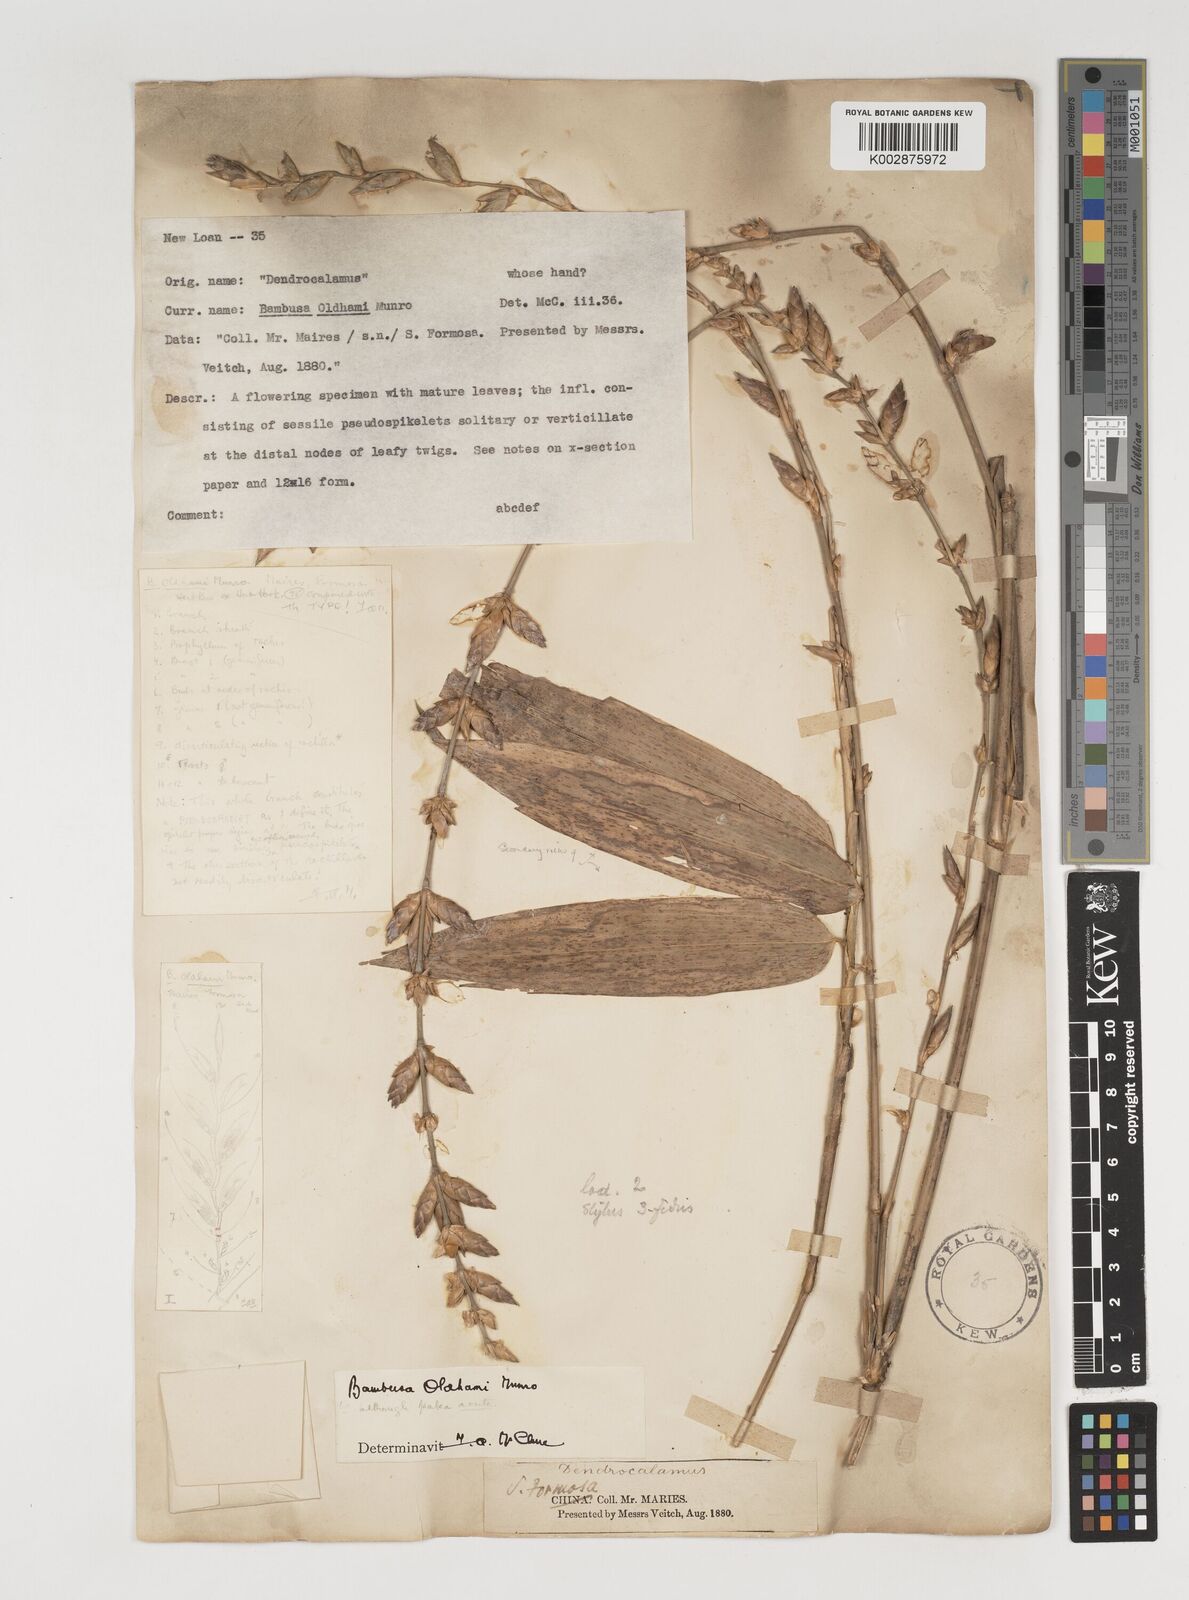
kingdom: Plantae
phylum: Tracheophyta
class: Liliopsida
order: Poales
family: Poaceae
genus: Bambusa
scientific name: Bambusa oldhamii
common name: Giant timber bamboo
